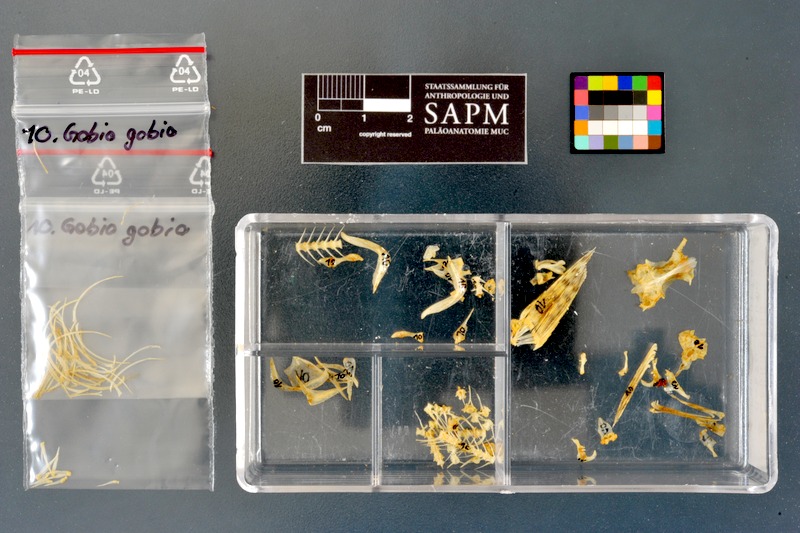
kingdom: Animalia
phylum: Chordata
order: Cypriniformes
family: Cyprinidae
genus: Gobio
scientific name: Gobio gobio
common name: Gudgeon
